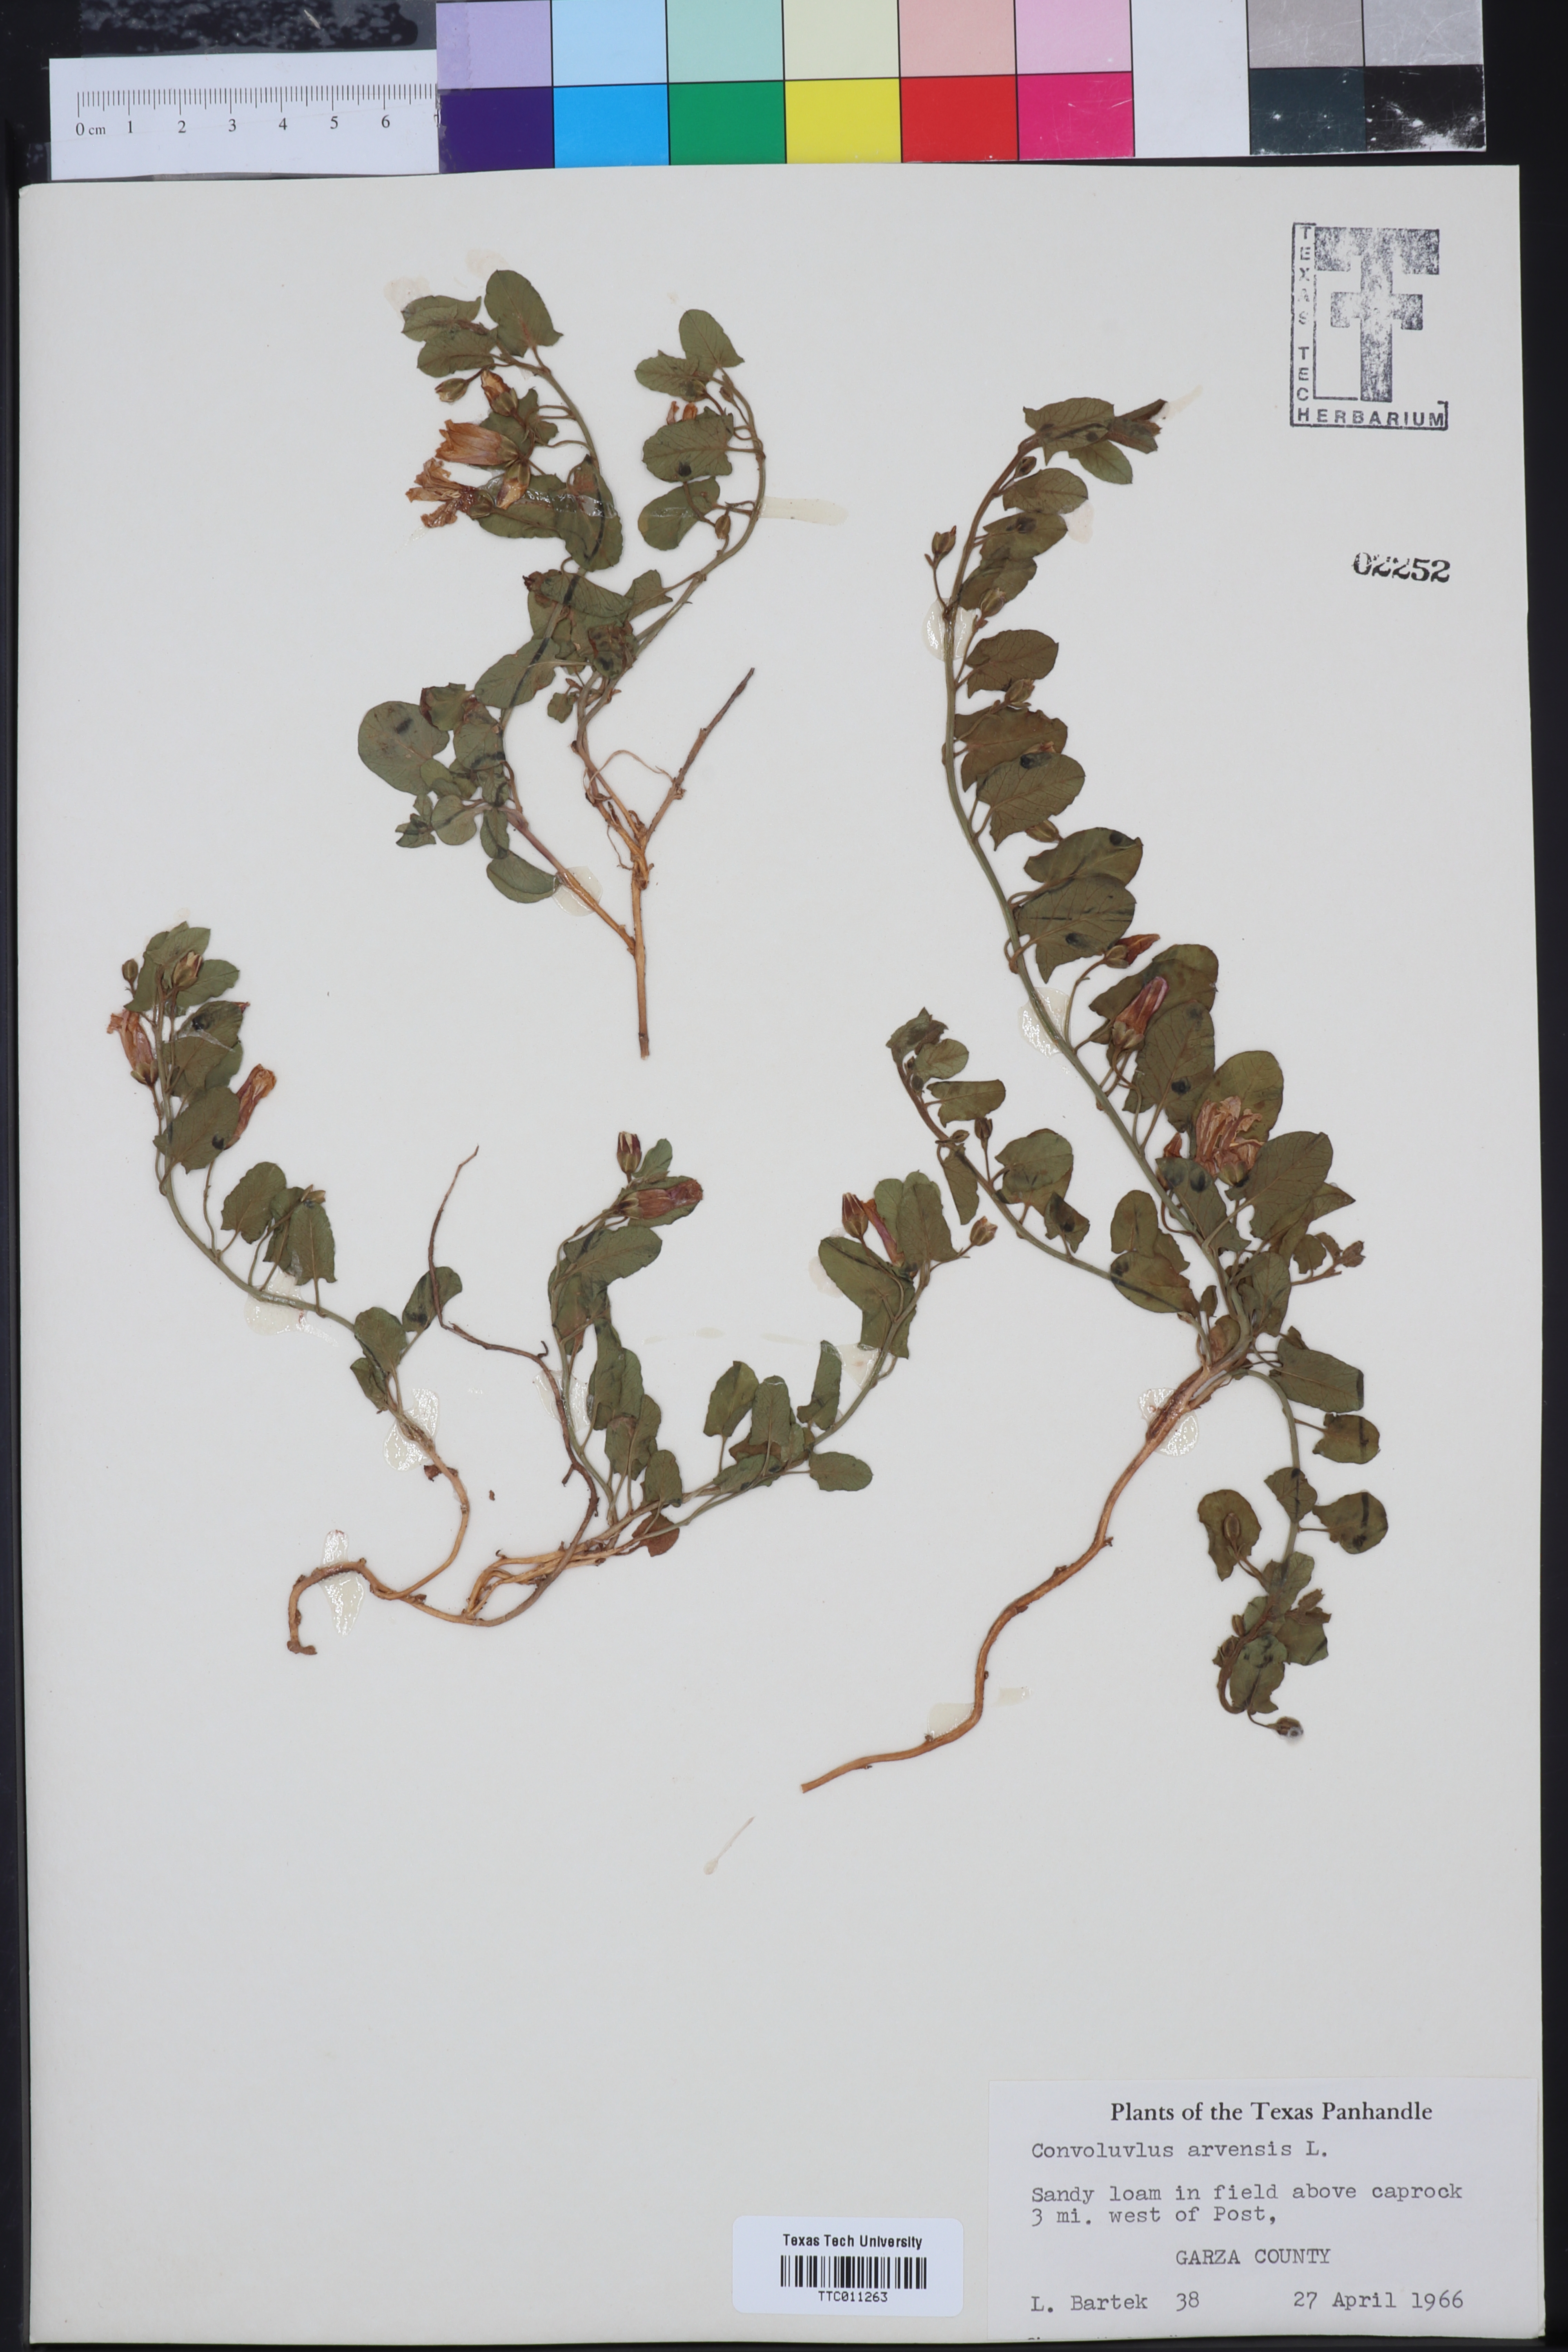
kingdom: Plantae
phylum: Tracheophyta
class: Magnoliopsida
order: Solanales
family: Convolvulaceae
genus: Convolvulus
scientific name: Convolvulus arvensis
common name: Field bindweed
